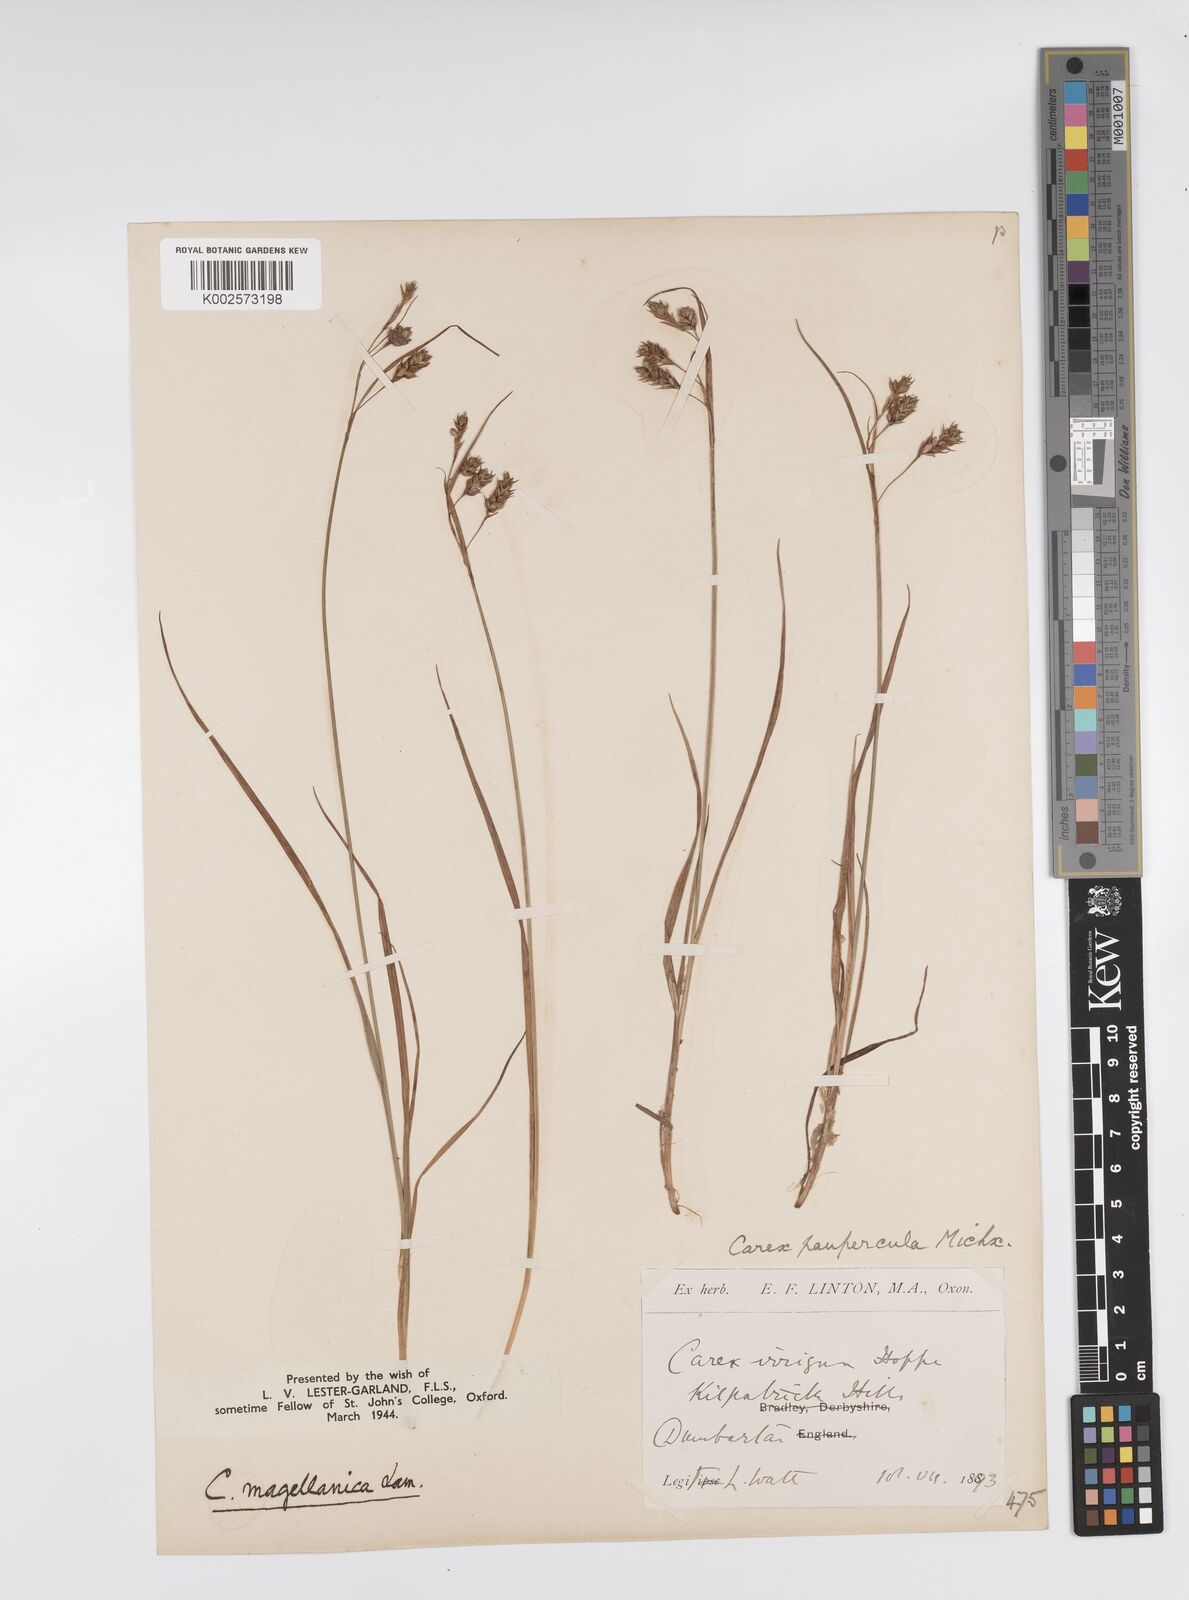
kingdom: Plantae
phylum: Tracheophyta
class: Liliopsida
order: Poales
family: Cyperaceae
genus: Carex
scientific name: Carex magellanica
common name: Bog sedge
